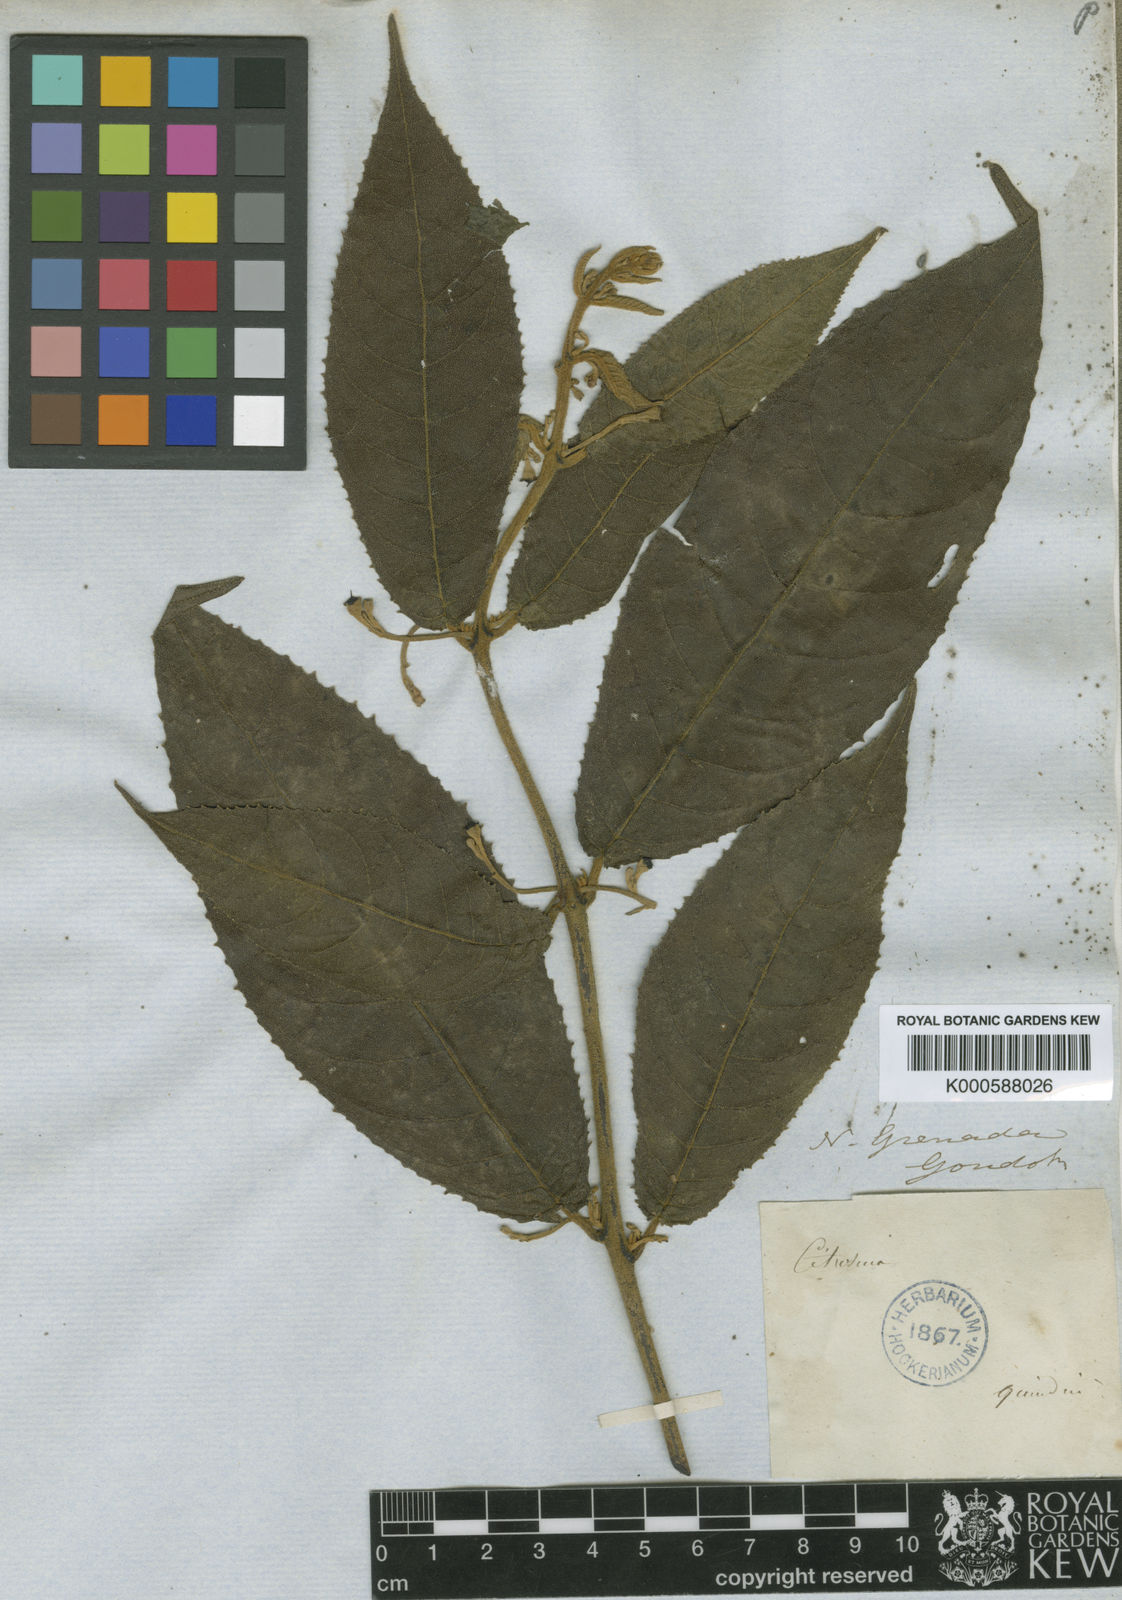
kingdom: Plantae
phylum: Tracheophyta
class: Magnoliopsida
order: Laurales
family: Siparunaceae
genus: Siparuna
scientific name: Siparuna lepidota
